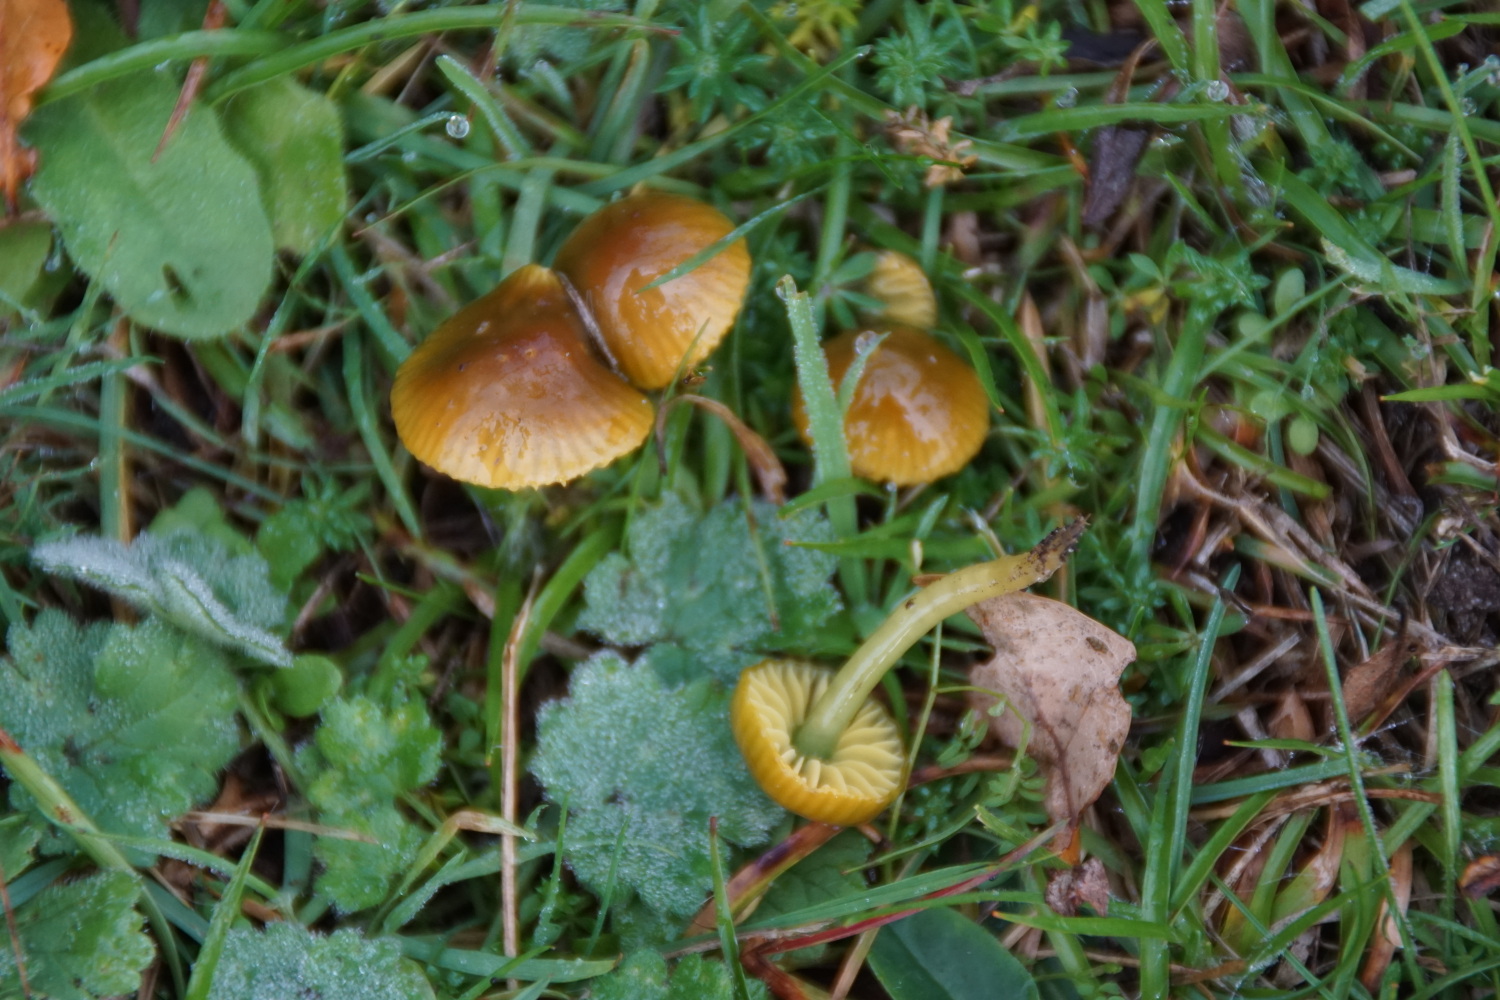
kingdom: Fungi
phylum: Basidiomycota
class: Agaricomycetes
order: Agaricales
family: Hygrophoraceae
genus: Gliophorus
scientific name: Gliophorus psittacinus
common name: papegøje-vokshat
